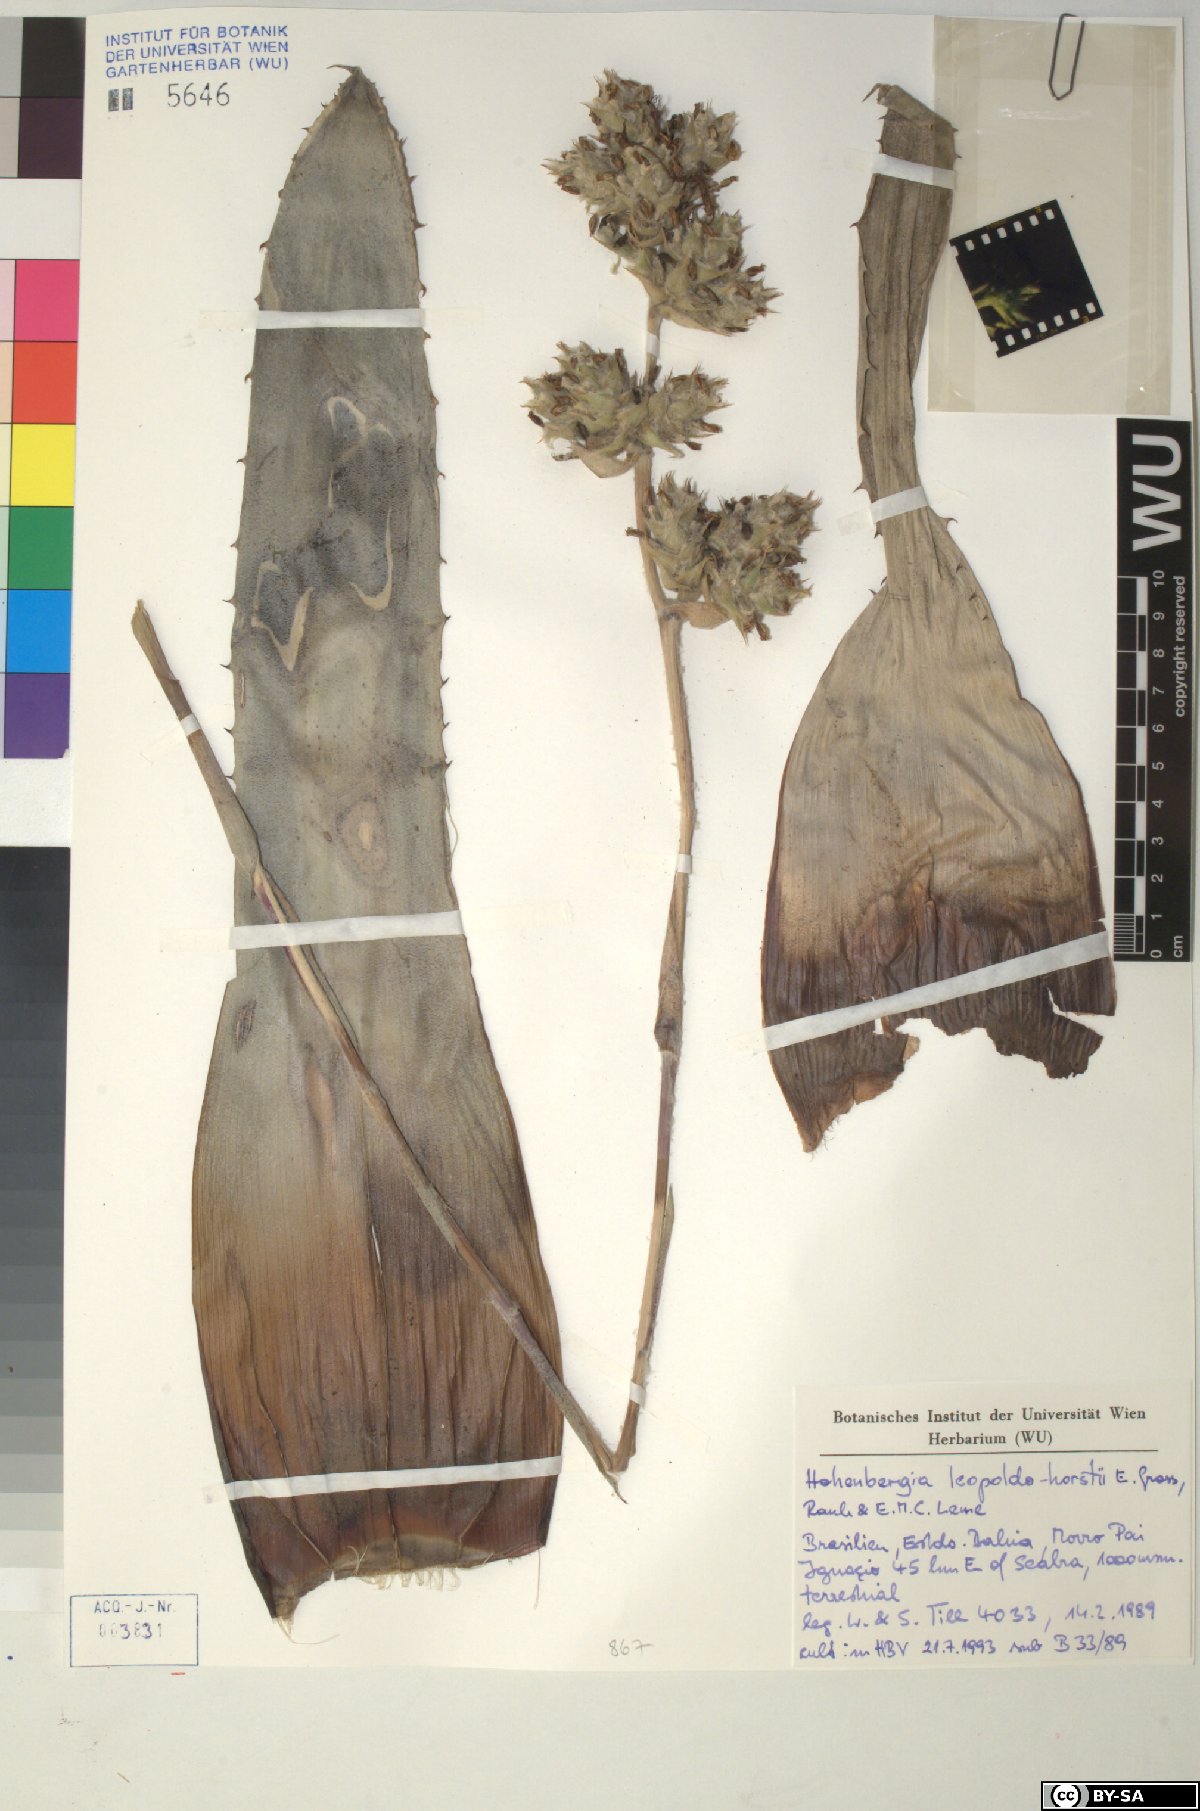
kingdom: Plantae
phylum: Tracheophyta
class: Liliopsida
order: Poales
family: Bromeliaceae
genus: Hohenbergia
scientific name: Hohenbergia leopoldo-horstii
